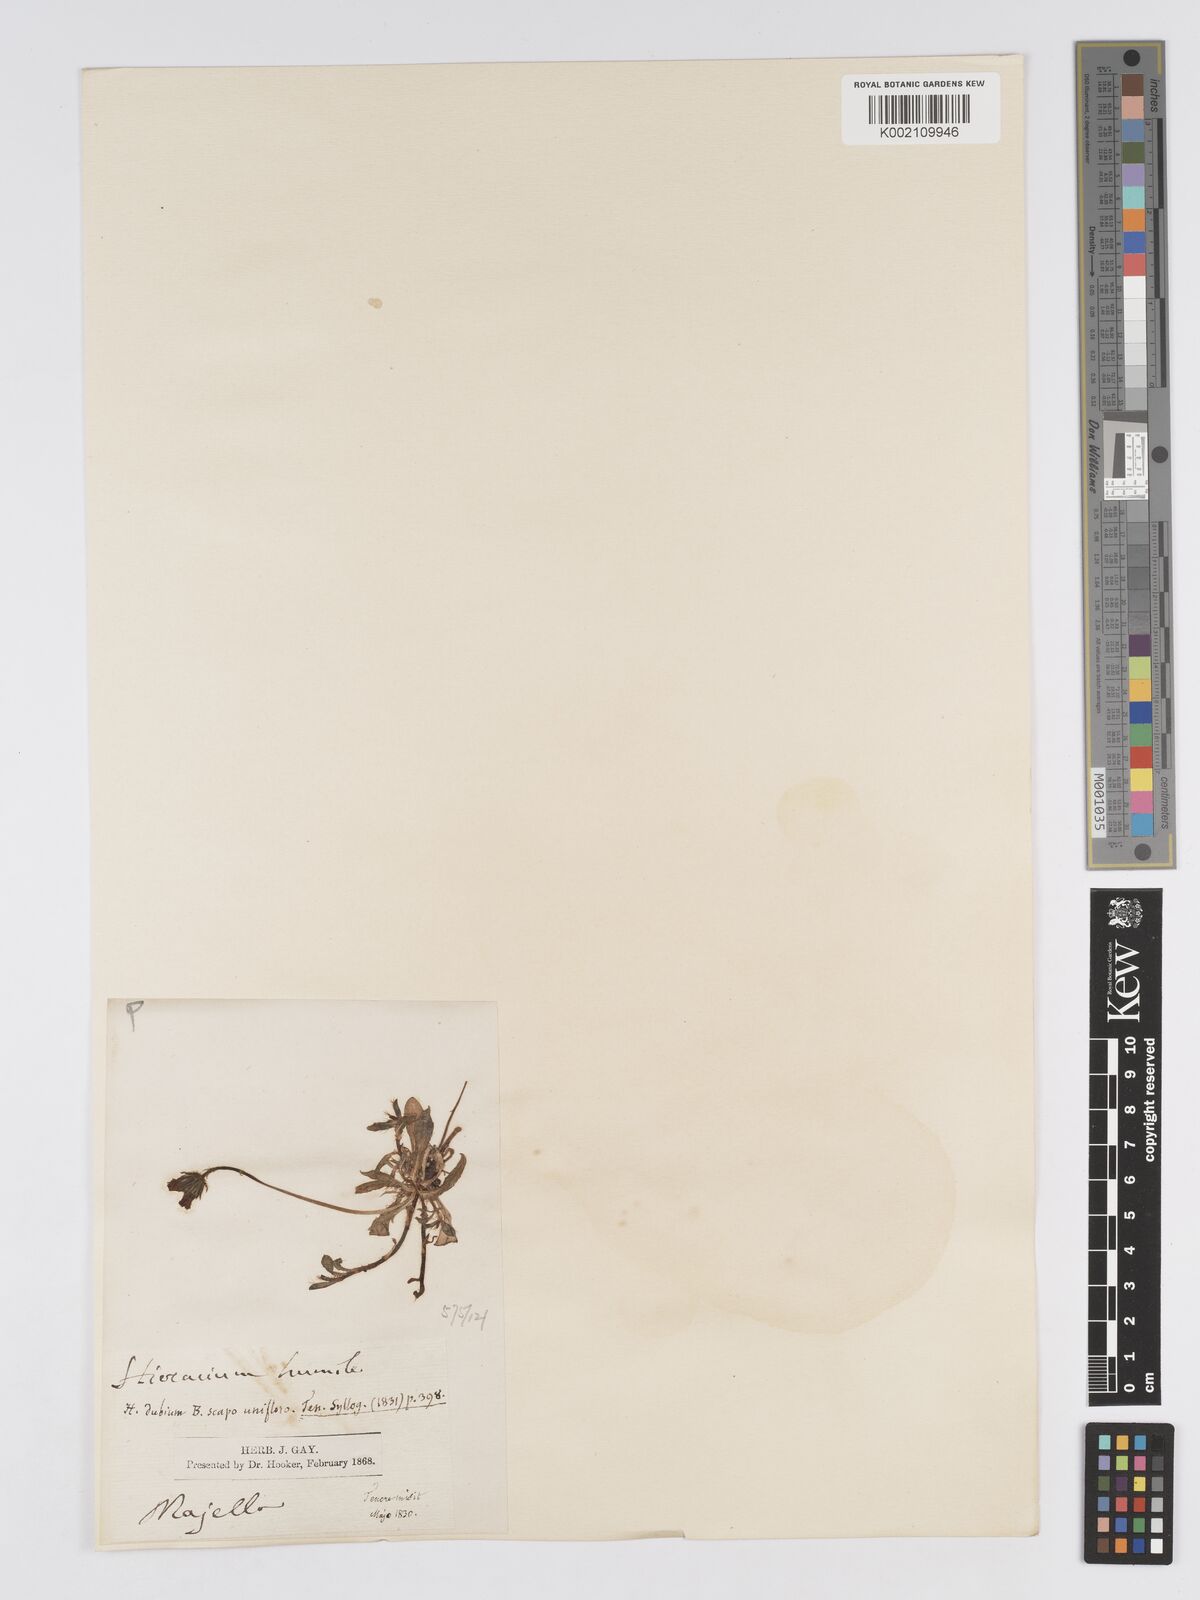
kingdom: Plantae
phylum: Tracheophyta
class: Magnoliopsida
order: Asterales
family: Asteraceae
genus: Pilosella
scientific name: Pilosella hoppeana
